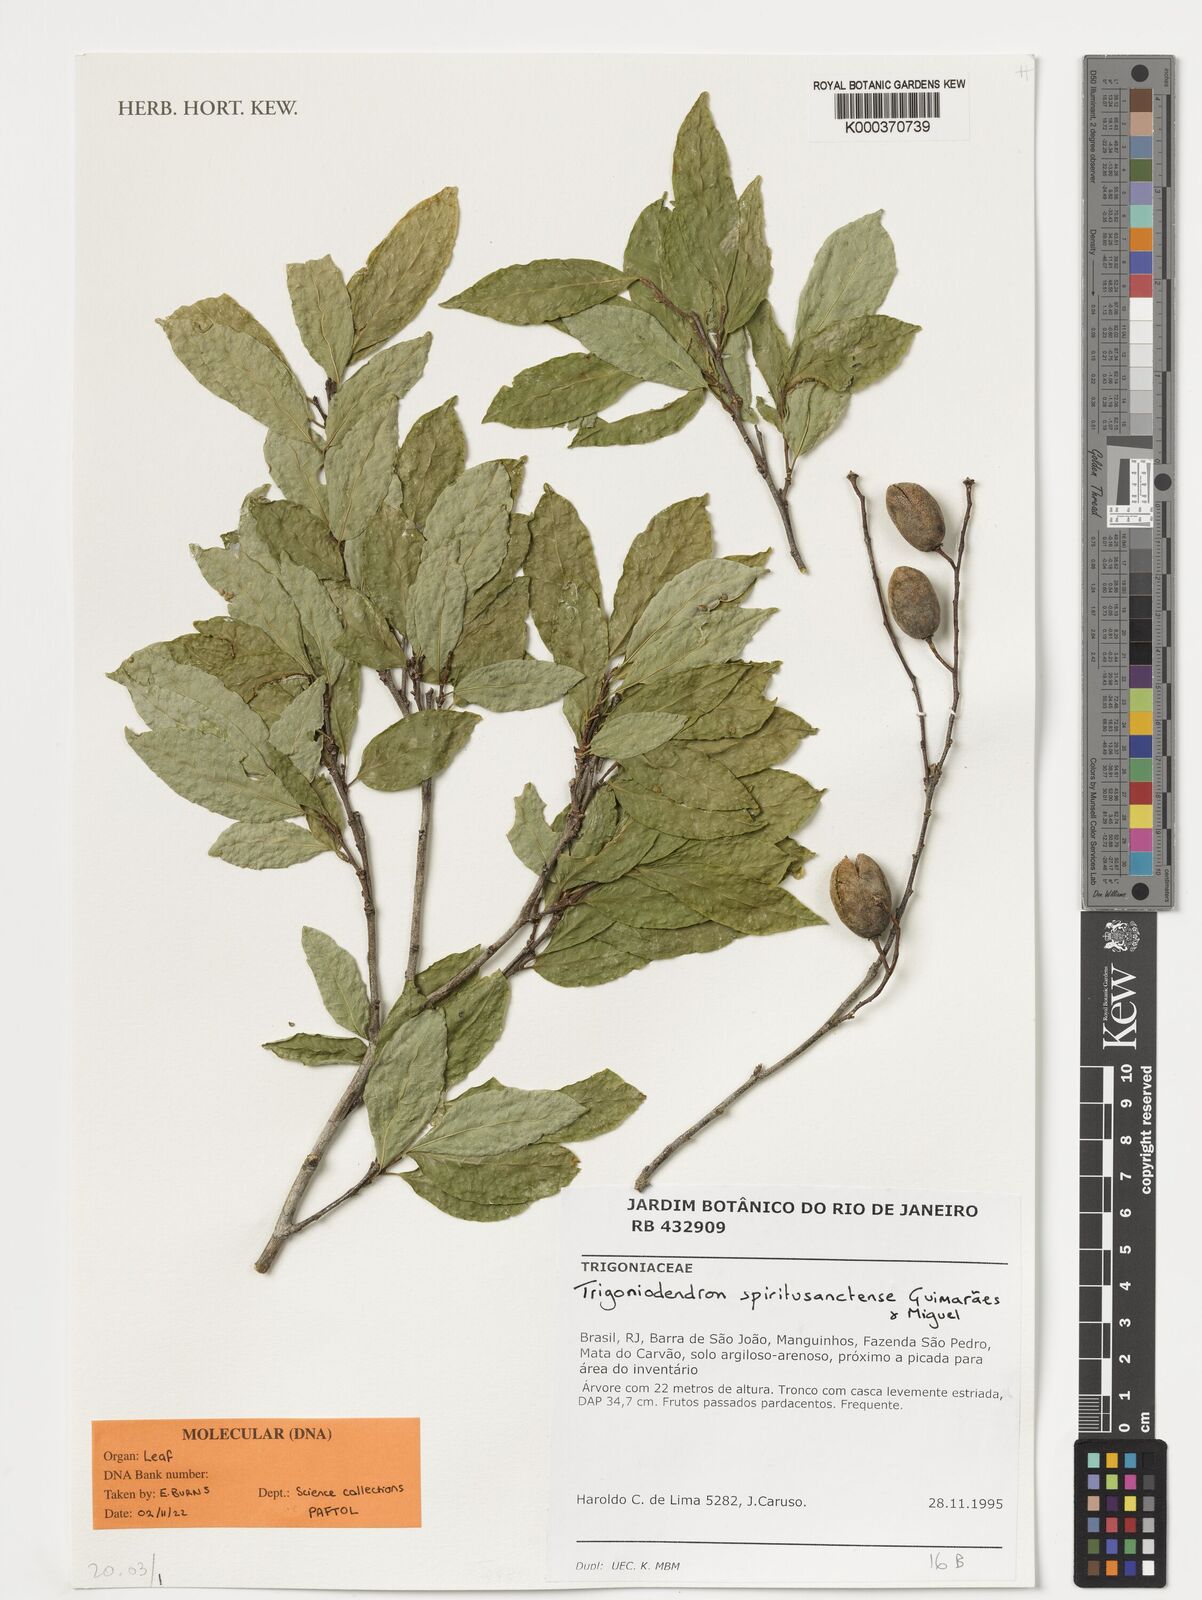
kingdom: Plantae
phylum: Tracheophyta
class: Magnoliopsida
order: Malpighiales
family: Trigoniaceae
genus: Trigoniodendron
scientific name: Trigoniodendron spiritusanctense
